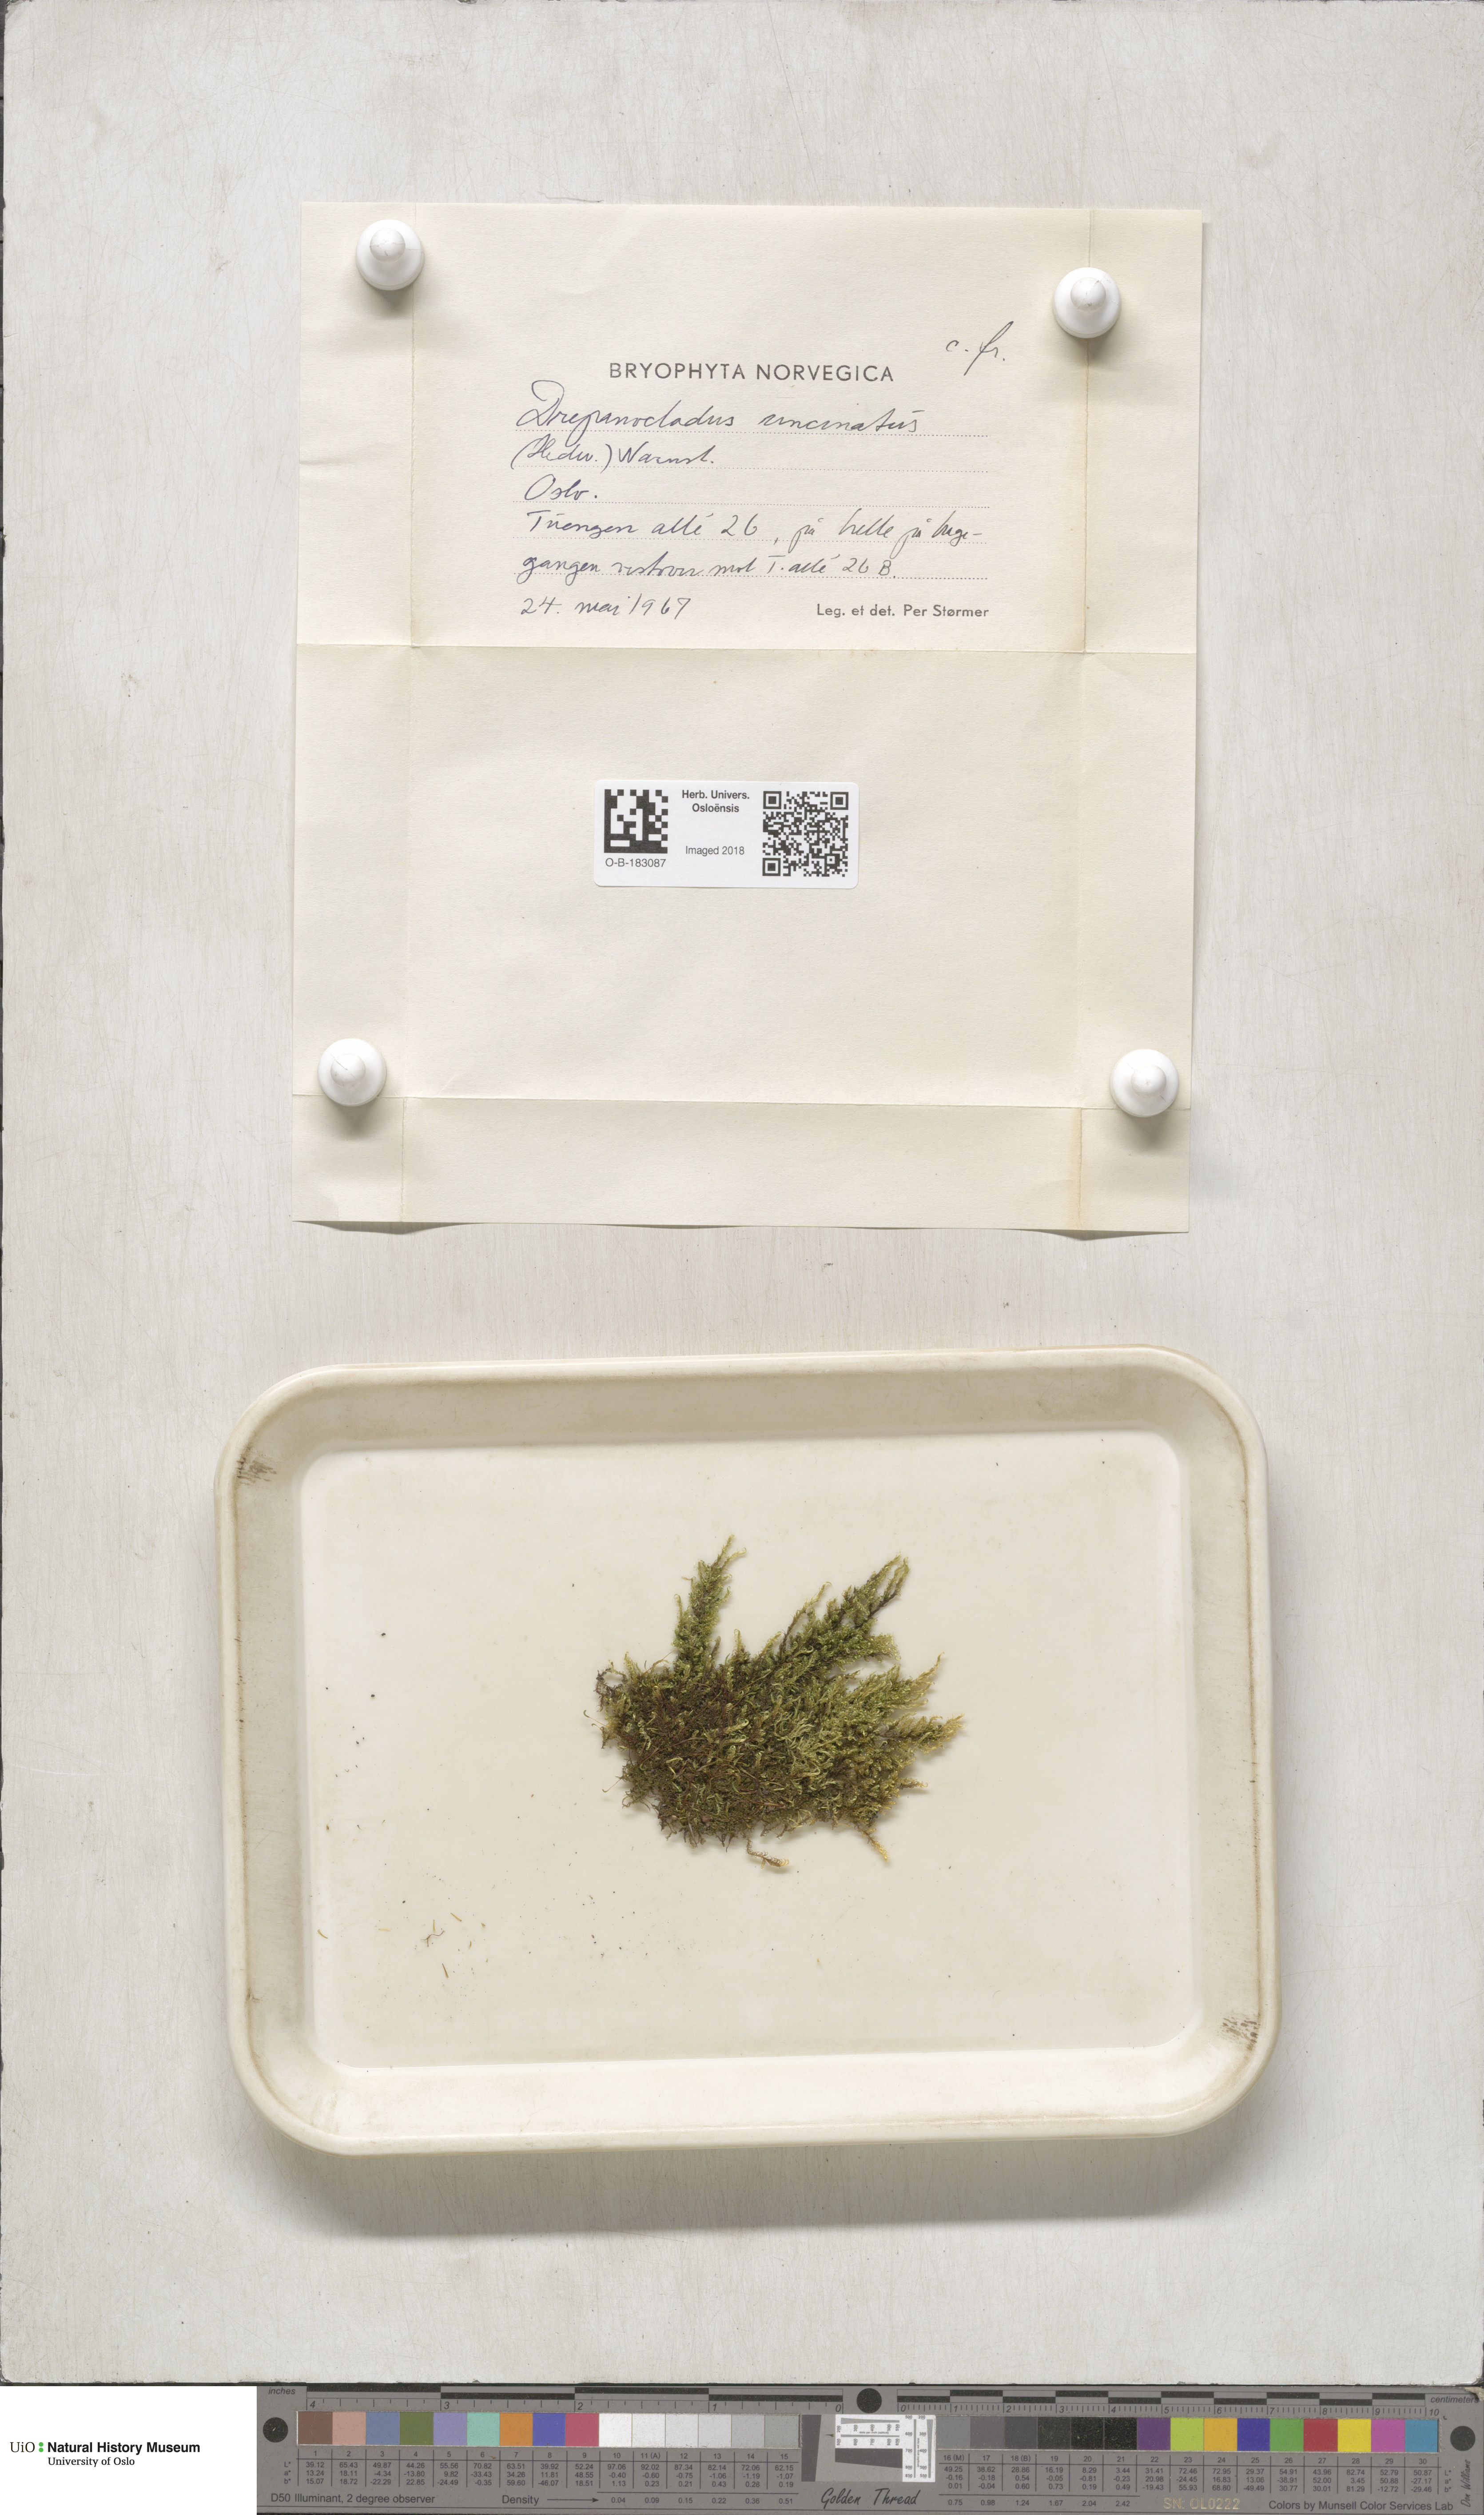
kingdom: Plantae
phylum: Bryophyta
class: Bryopsida
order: Hypnales
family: Scorpidiaceae
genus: Sanionia
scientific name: Sanionia uncinata
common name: Sickle moss
